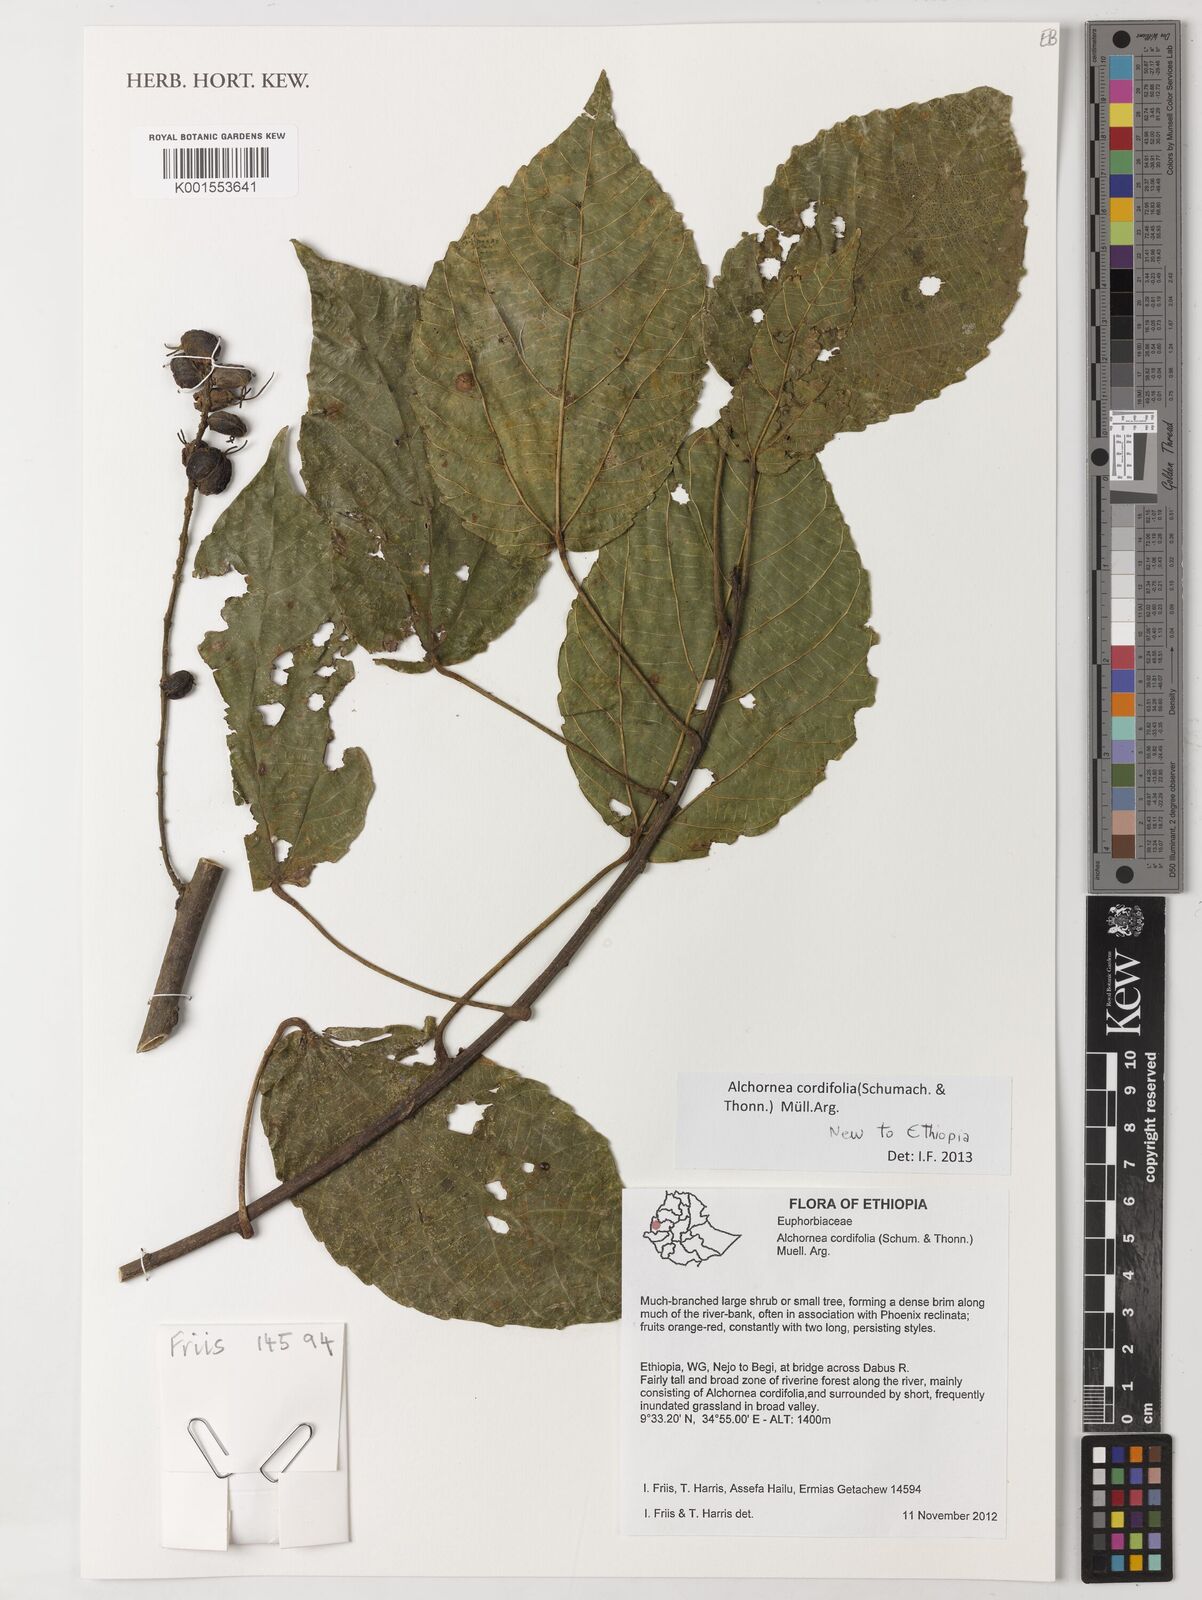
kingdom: Plantae
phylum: Tracheophyta
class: Magnoliopsida
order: Malpighiales
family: Euphorbiaceae
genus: Alchornea
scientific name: Alchornea cordifolia
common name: Christmasbush
